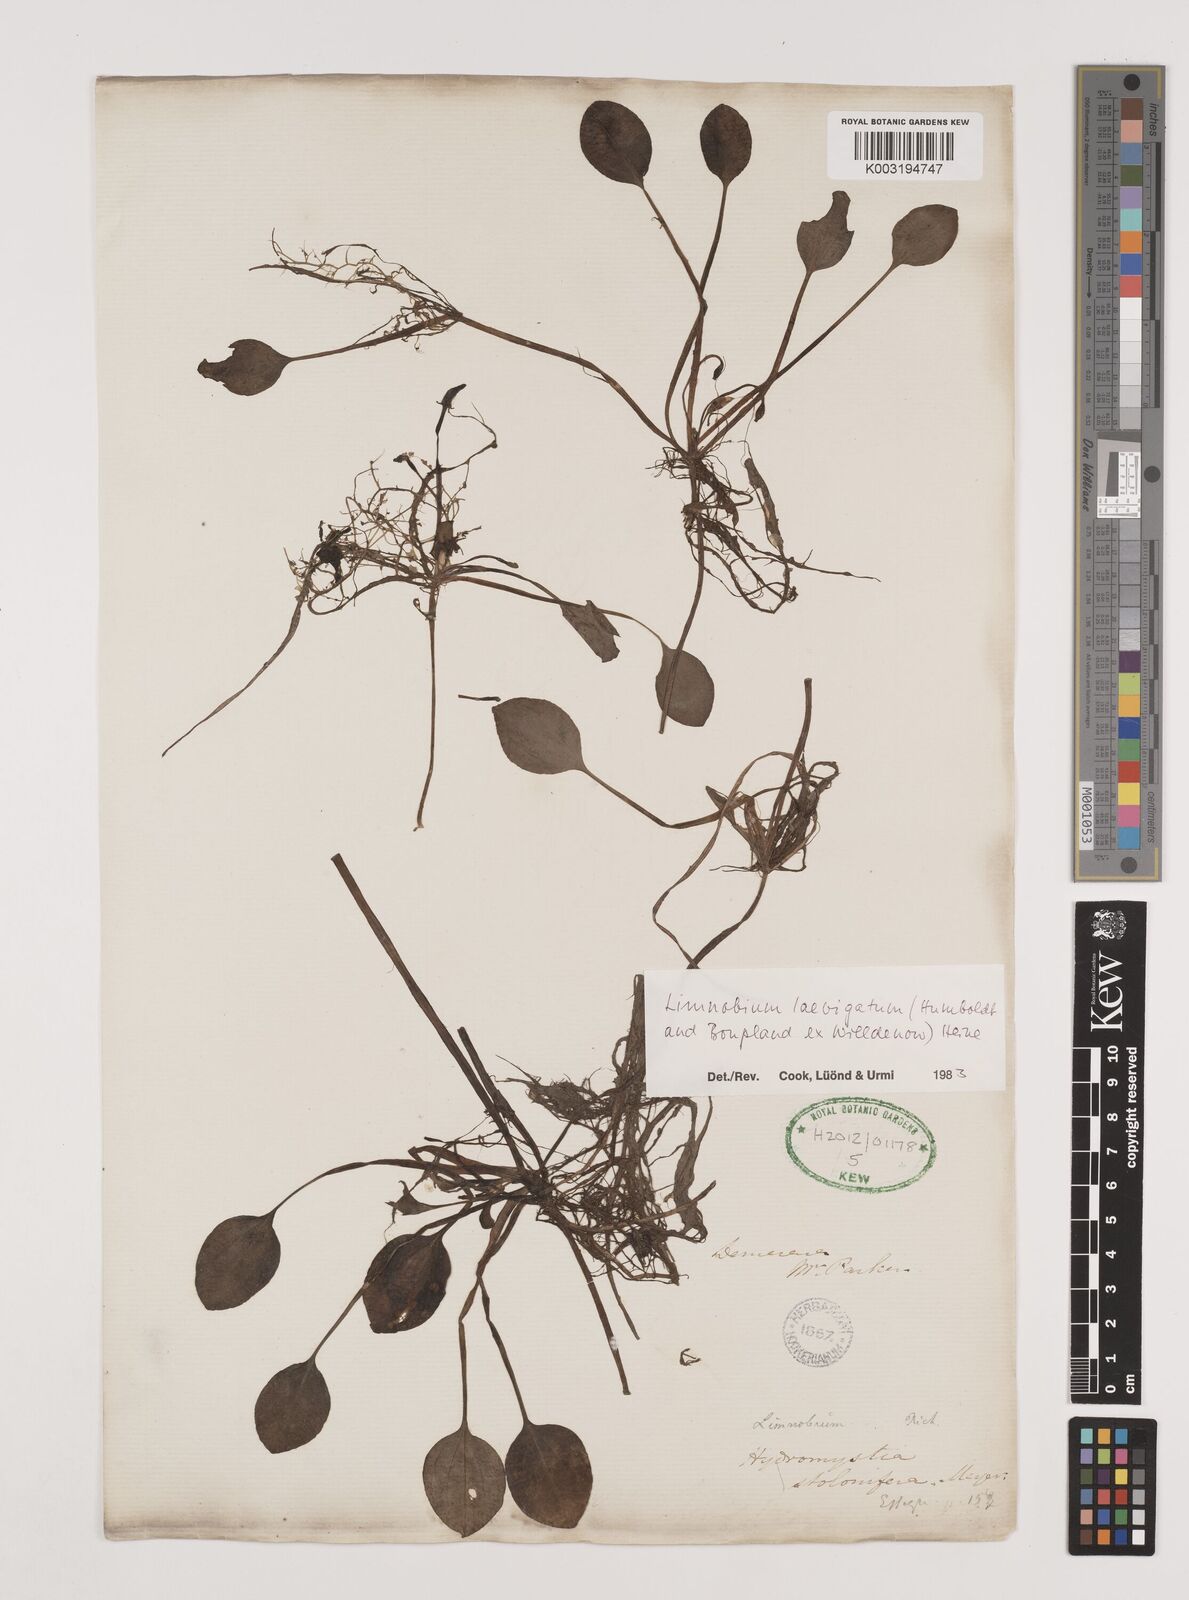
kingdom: Plantae
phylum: Tracheophyta
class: Liliopsida
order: Alismatales
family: Hydrocharitaceae
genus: Hydrocharis
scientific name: Hydrocharis laevigata
